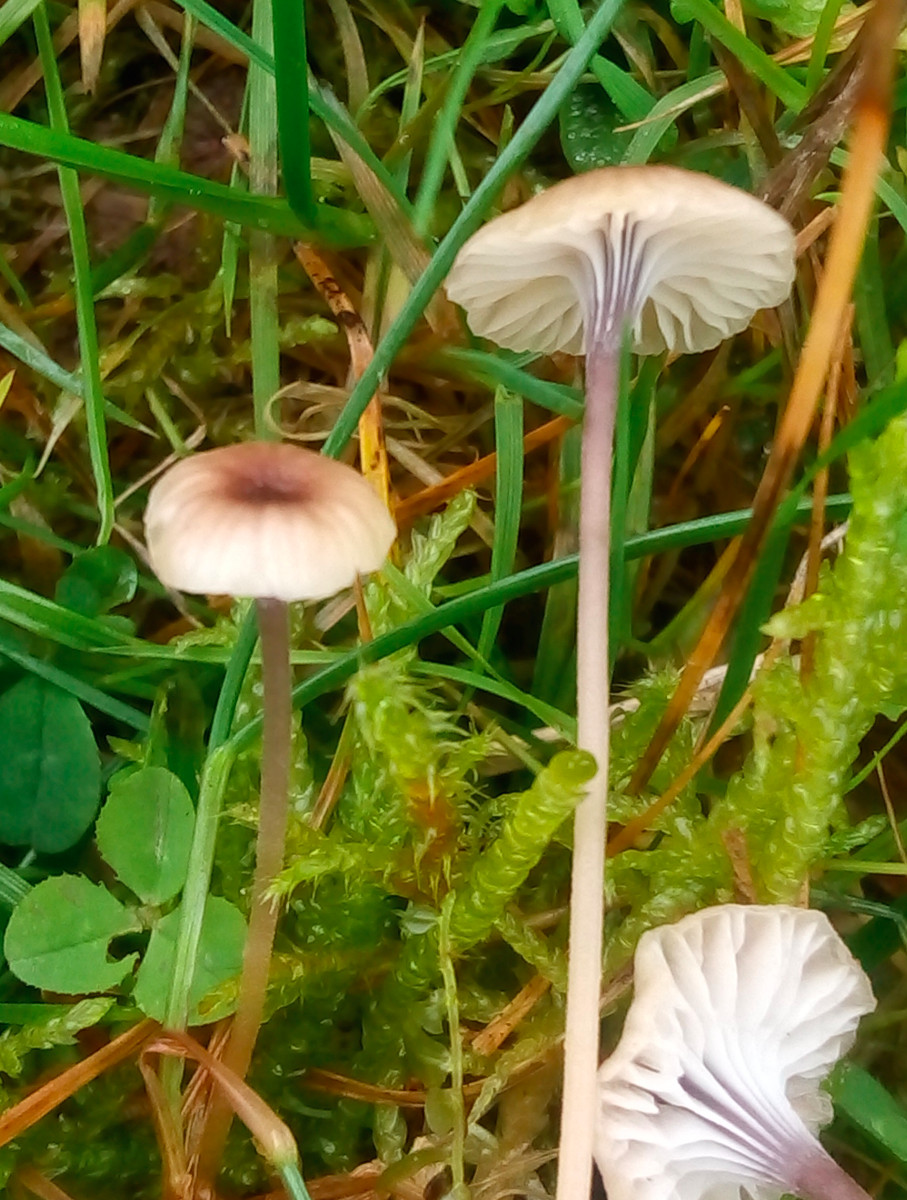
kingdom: Fungi
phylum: Basidiomycota
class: Agaricomycetes
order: Hymenochaetales
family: Rickenellaceae
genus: Rickenella
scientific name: Rickenella swartzii
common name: finstokket mosnavlehat
